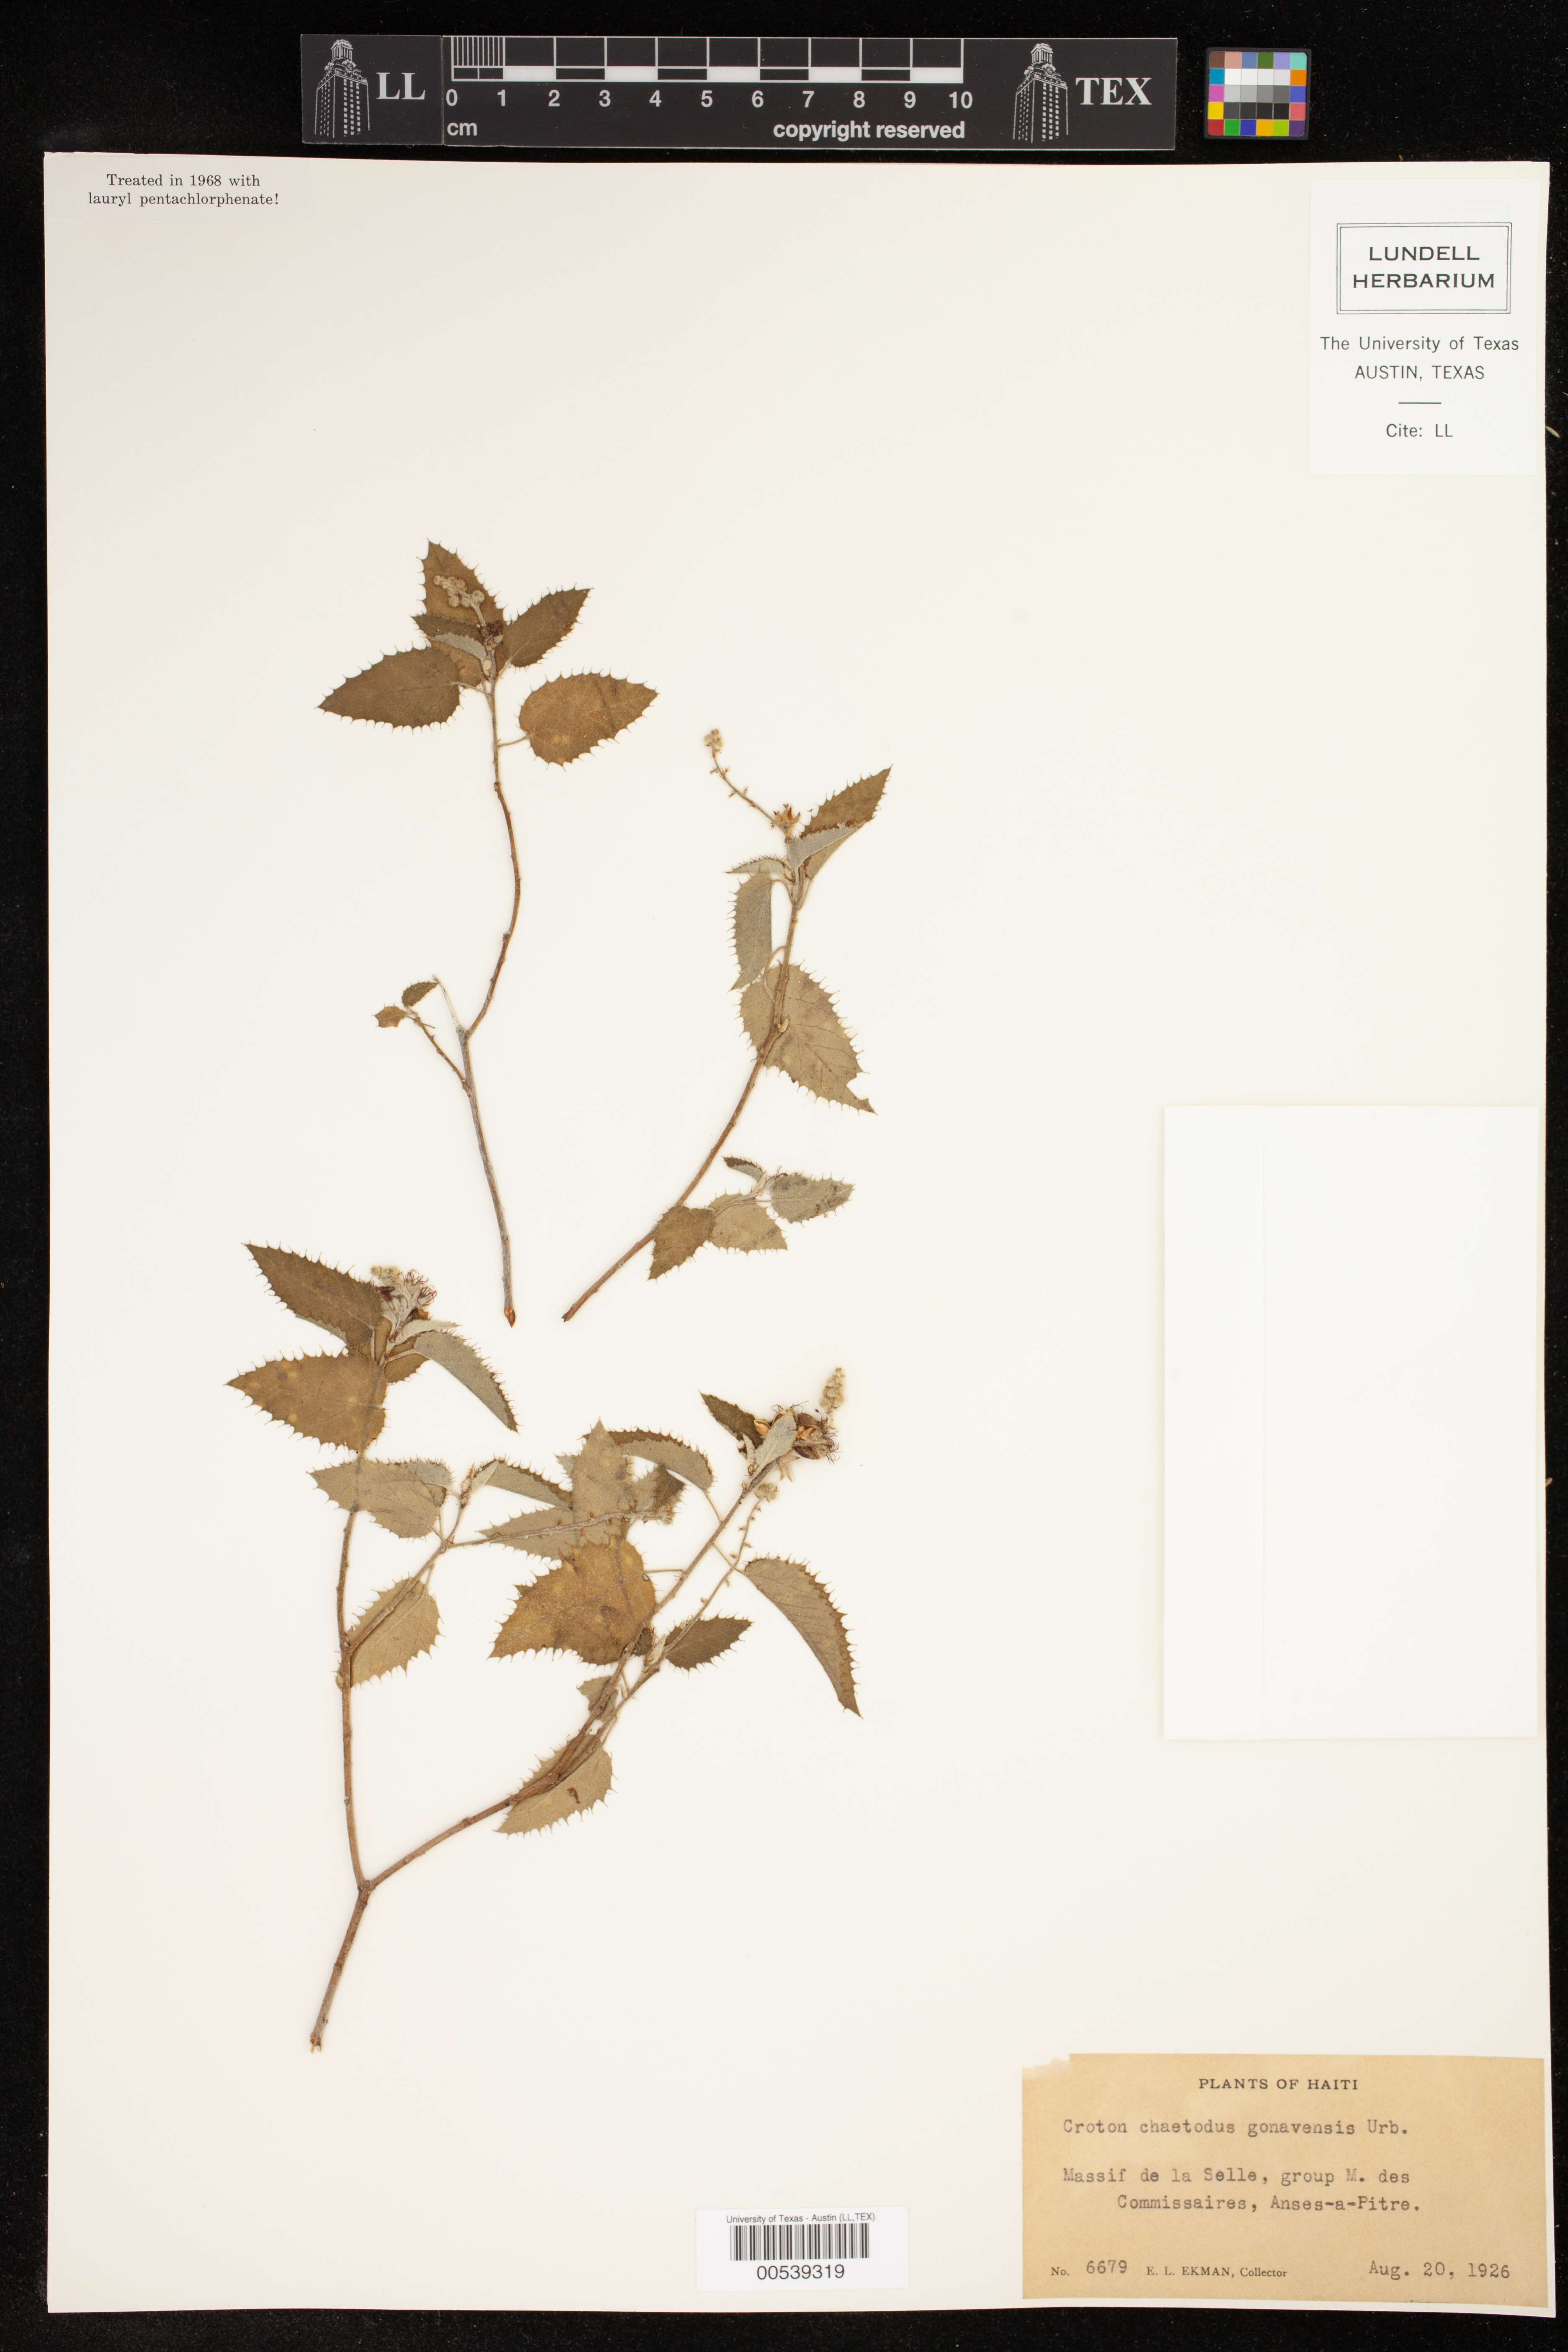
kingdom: Plantae
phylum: Tracheophyta
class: Magnoliopsida
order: Malpighiales
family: Euphorbiaceae
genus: Croton
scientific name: Croton ciliatoglandulifer
